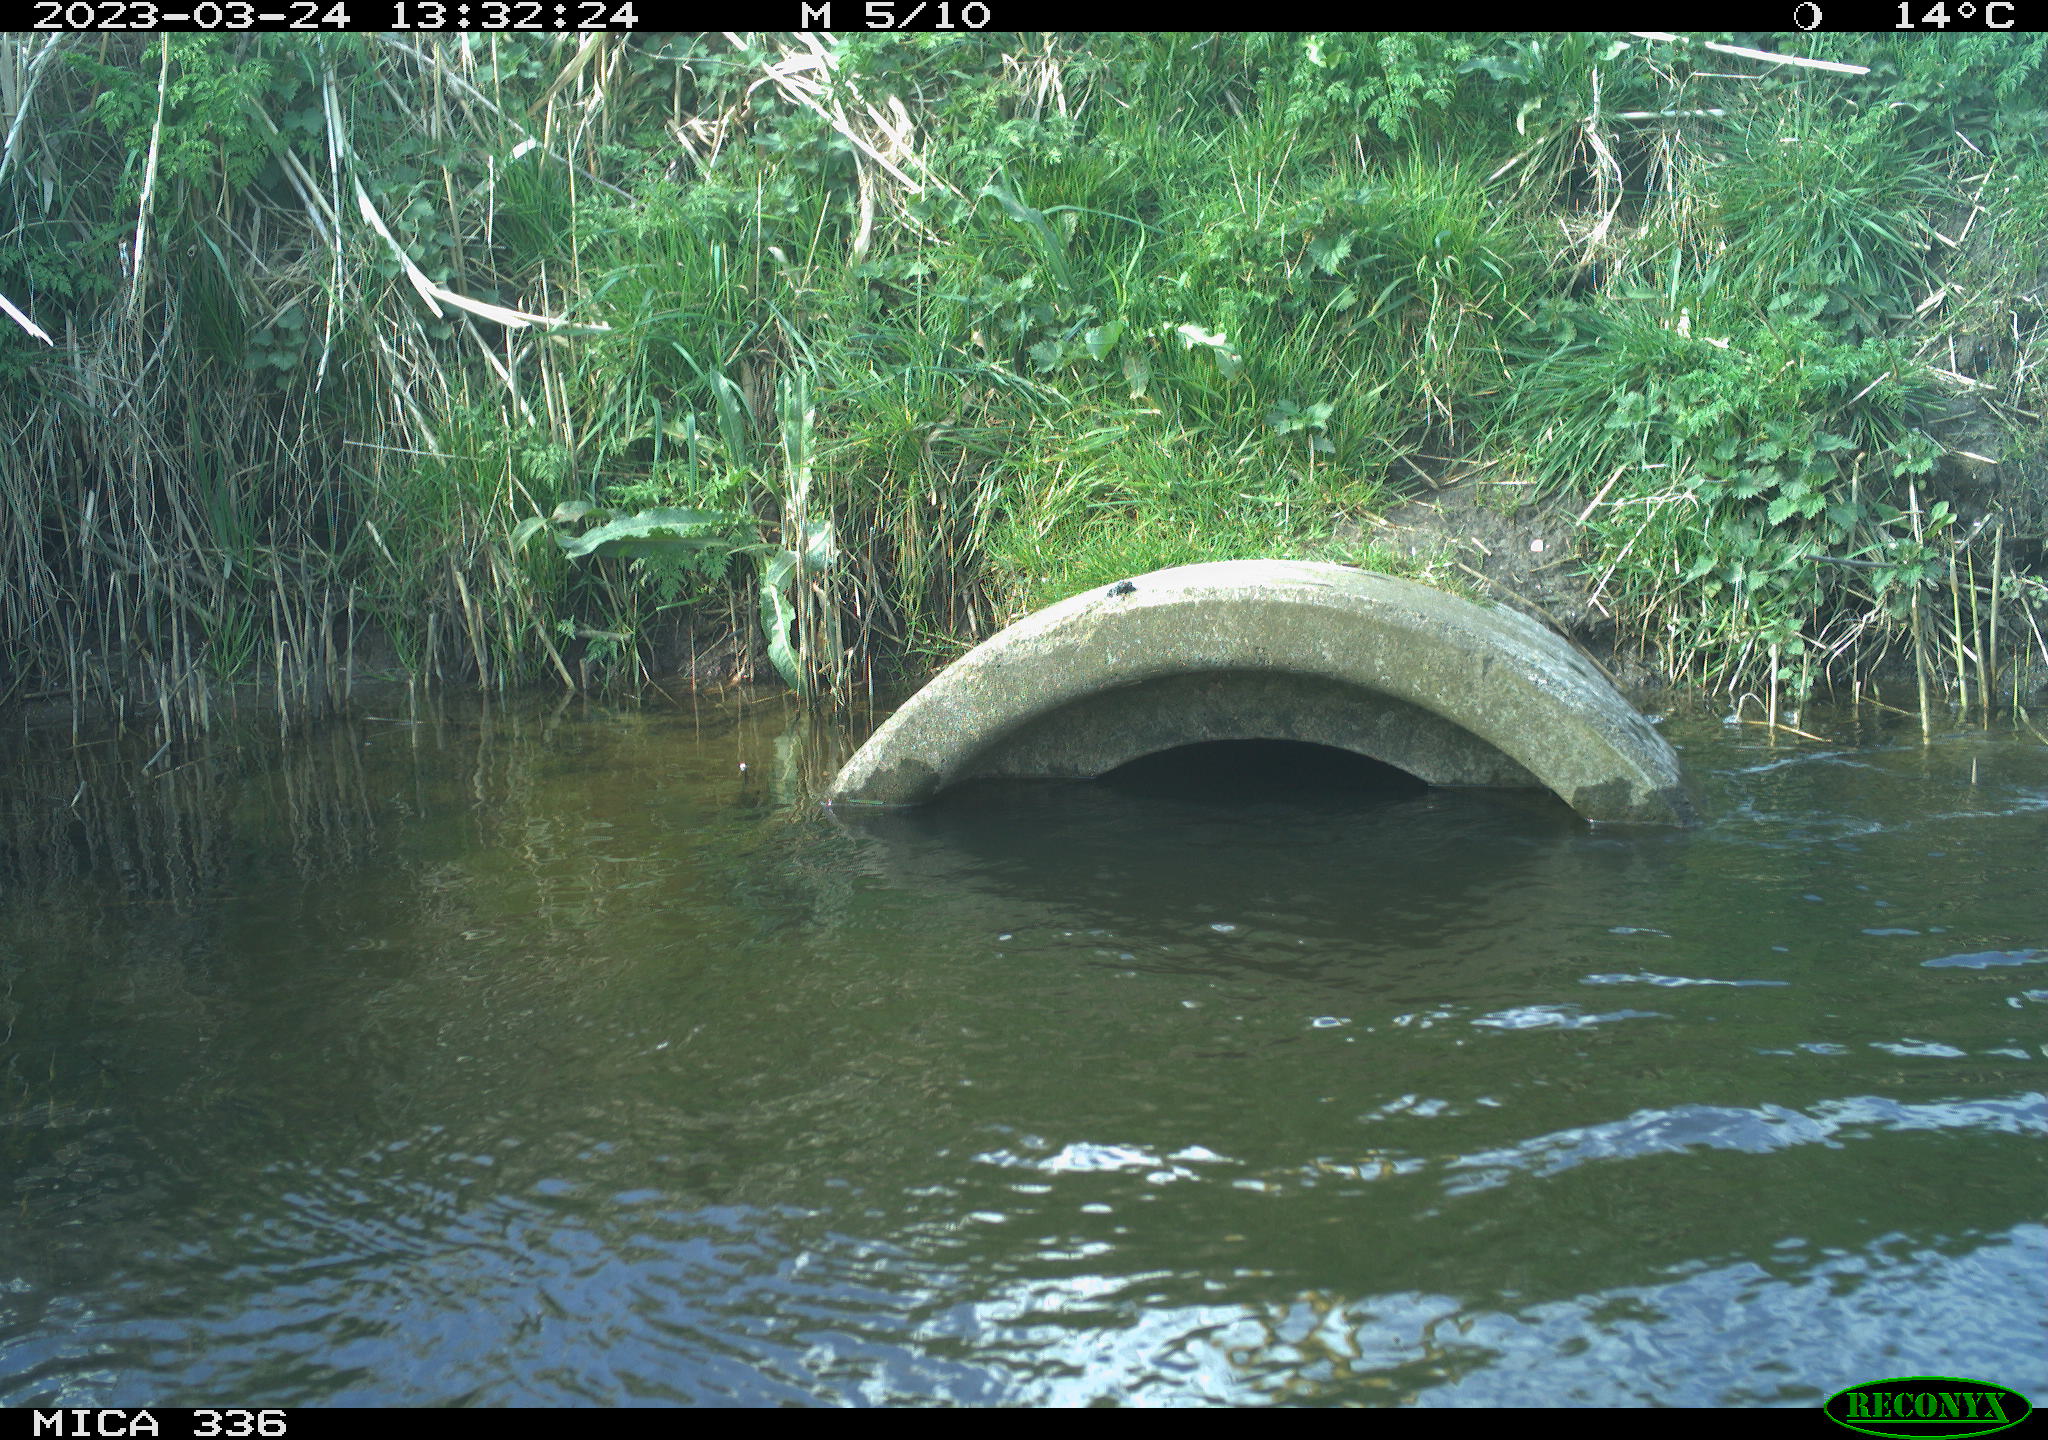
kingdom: Animalia
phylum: Chordata
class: Aves
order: Pelecaniformes
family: Ardeidae
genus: Ardea
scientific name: Ardea cinerea
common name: Grey heron
